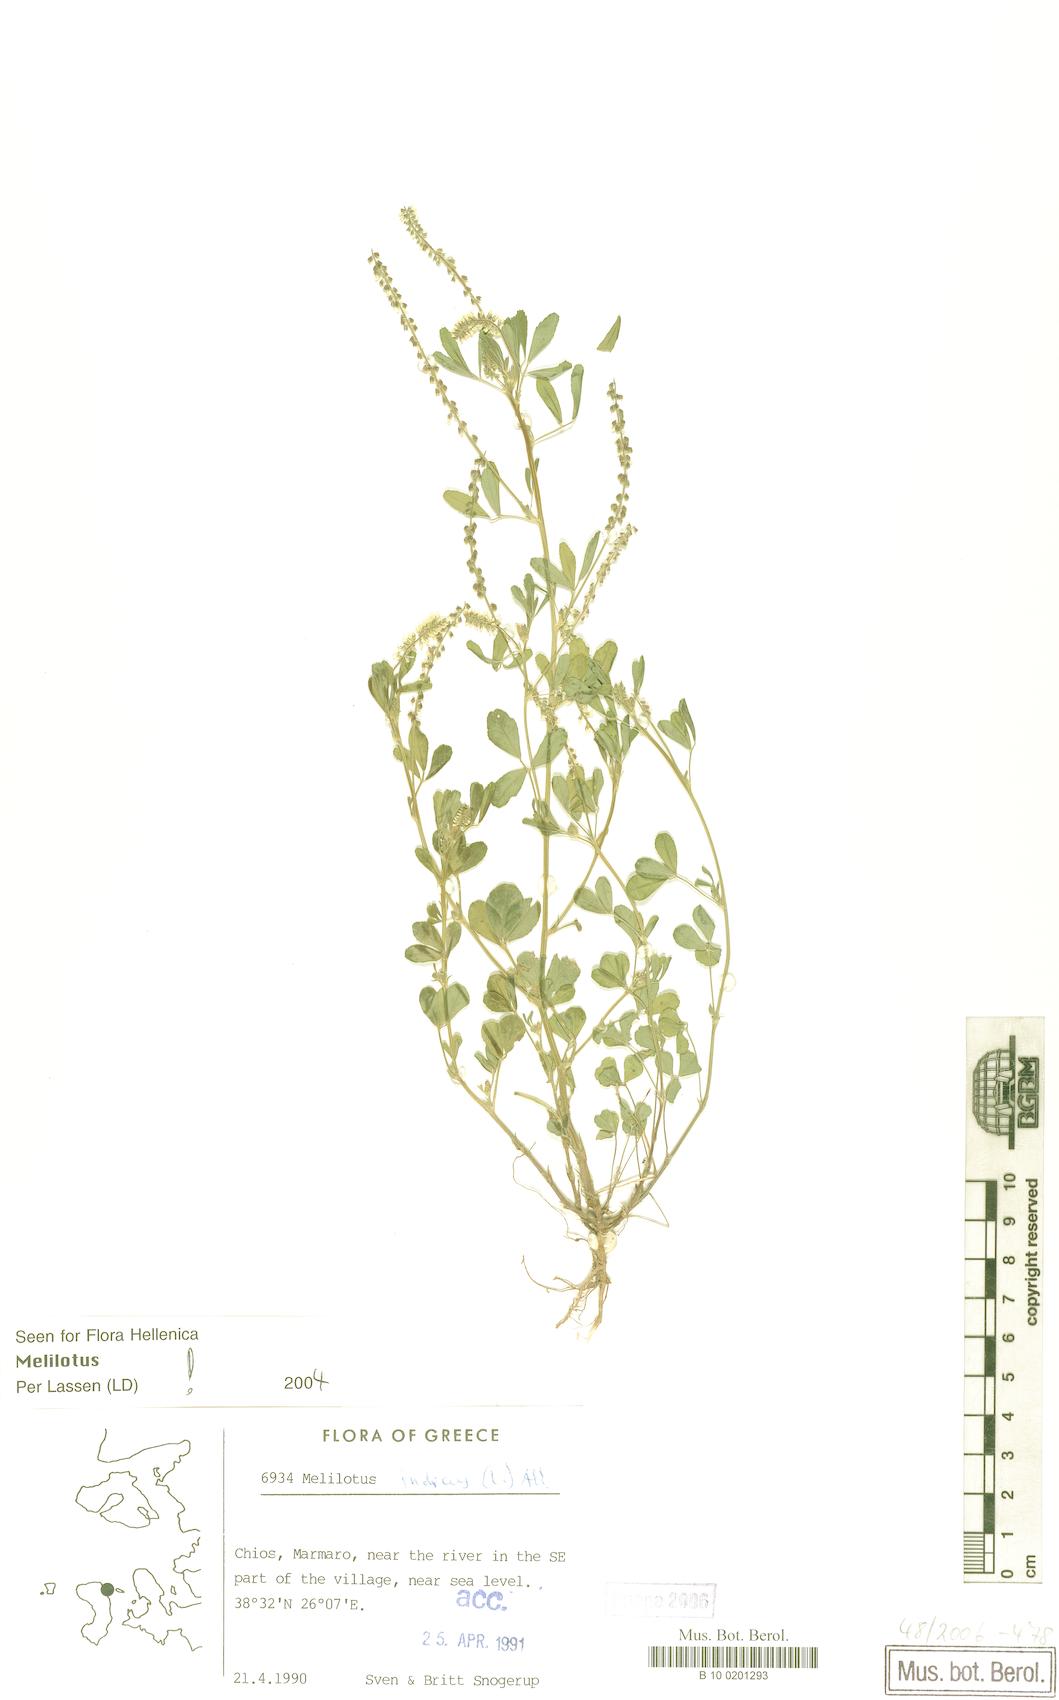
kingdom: Plantae
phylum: Tracheophyta
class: Magnoliopsida
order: Fabales
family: Fabaceae
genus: Melilotus
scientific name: Melilotus indicus
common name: Small melilot
